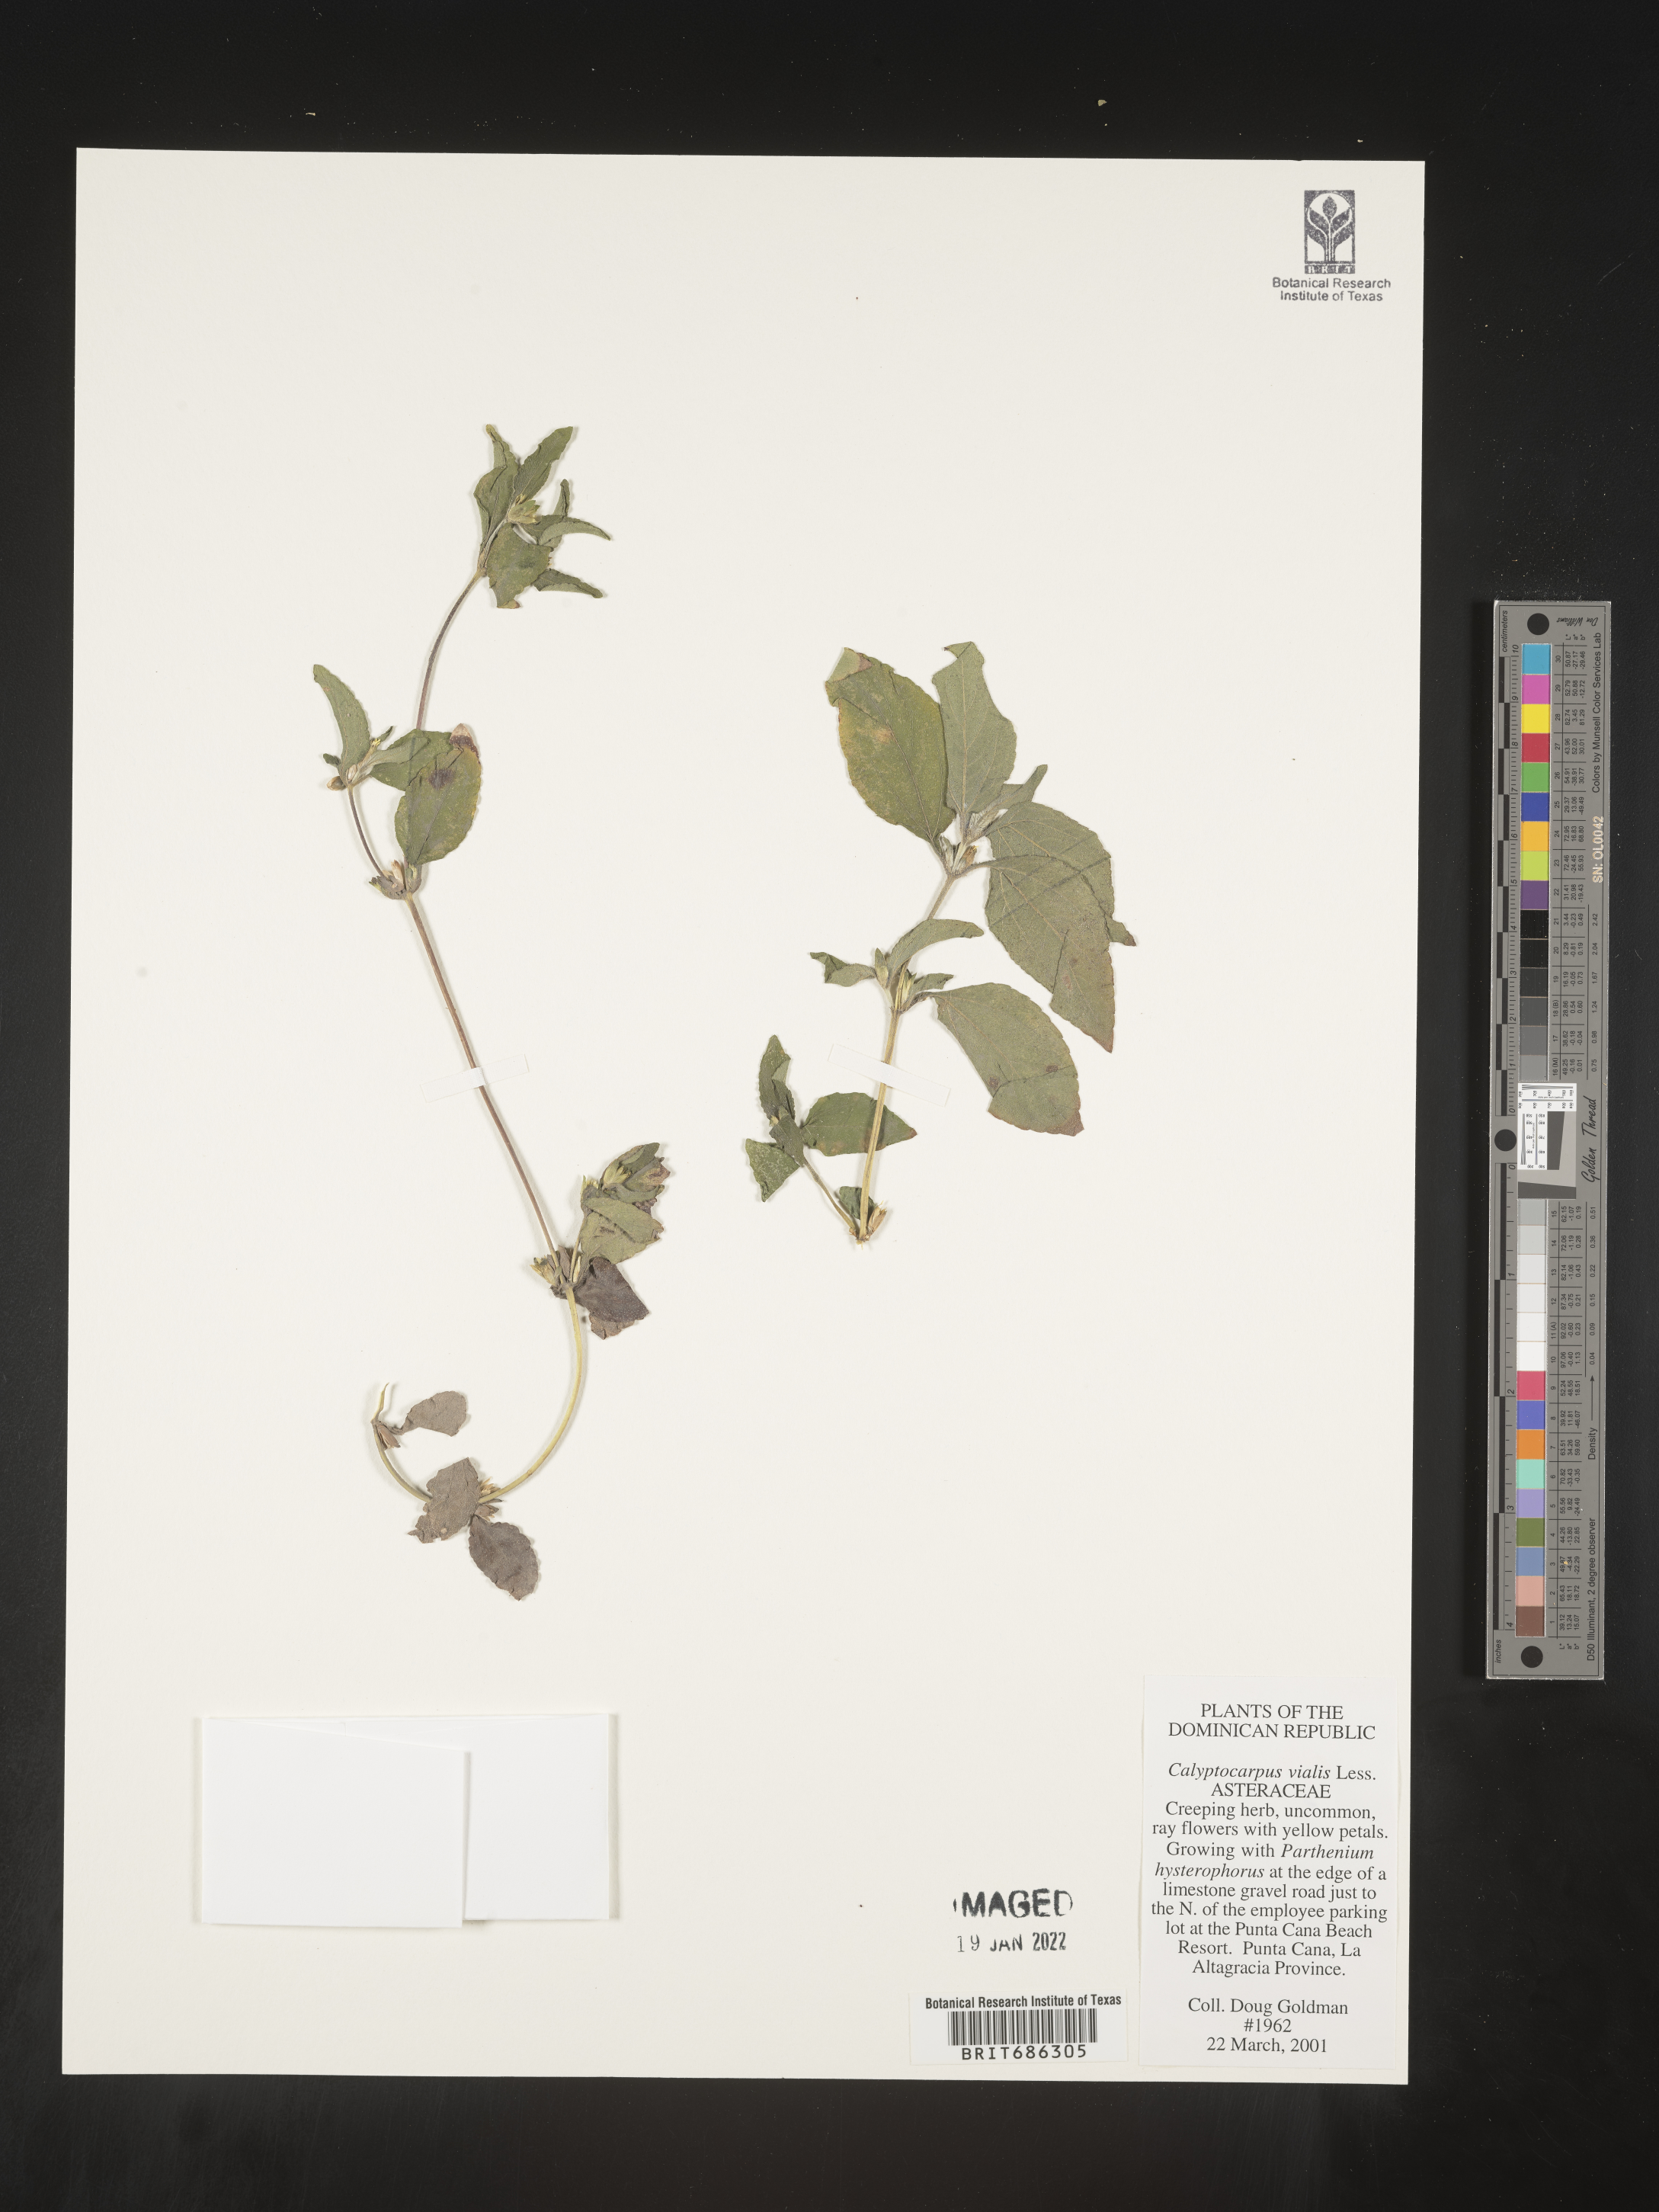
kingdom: Plantae
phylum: Tracheophyta
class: Magnoliopsida
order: Asterales
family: Asteraceae
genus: Calyptocarpus
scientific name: Calyptocarpus
